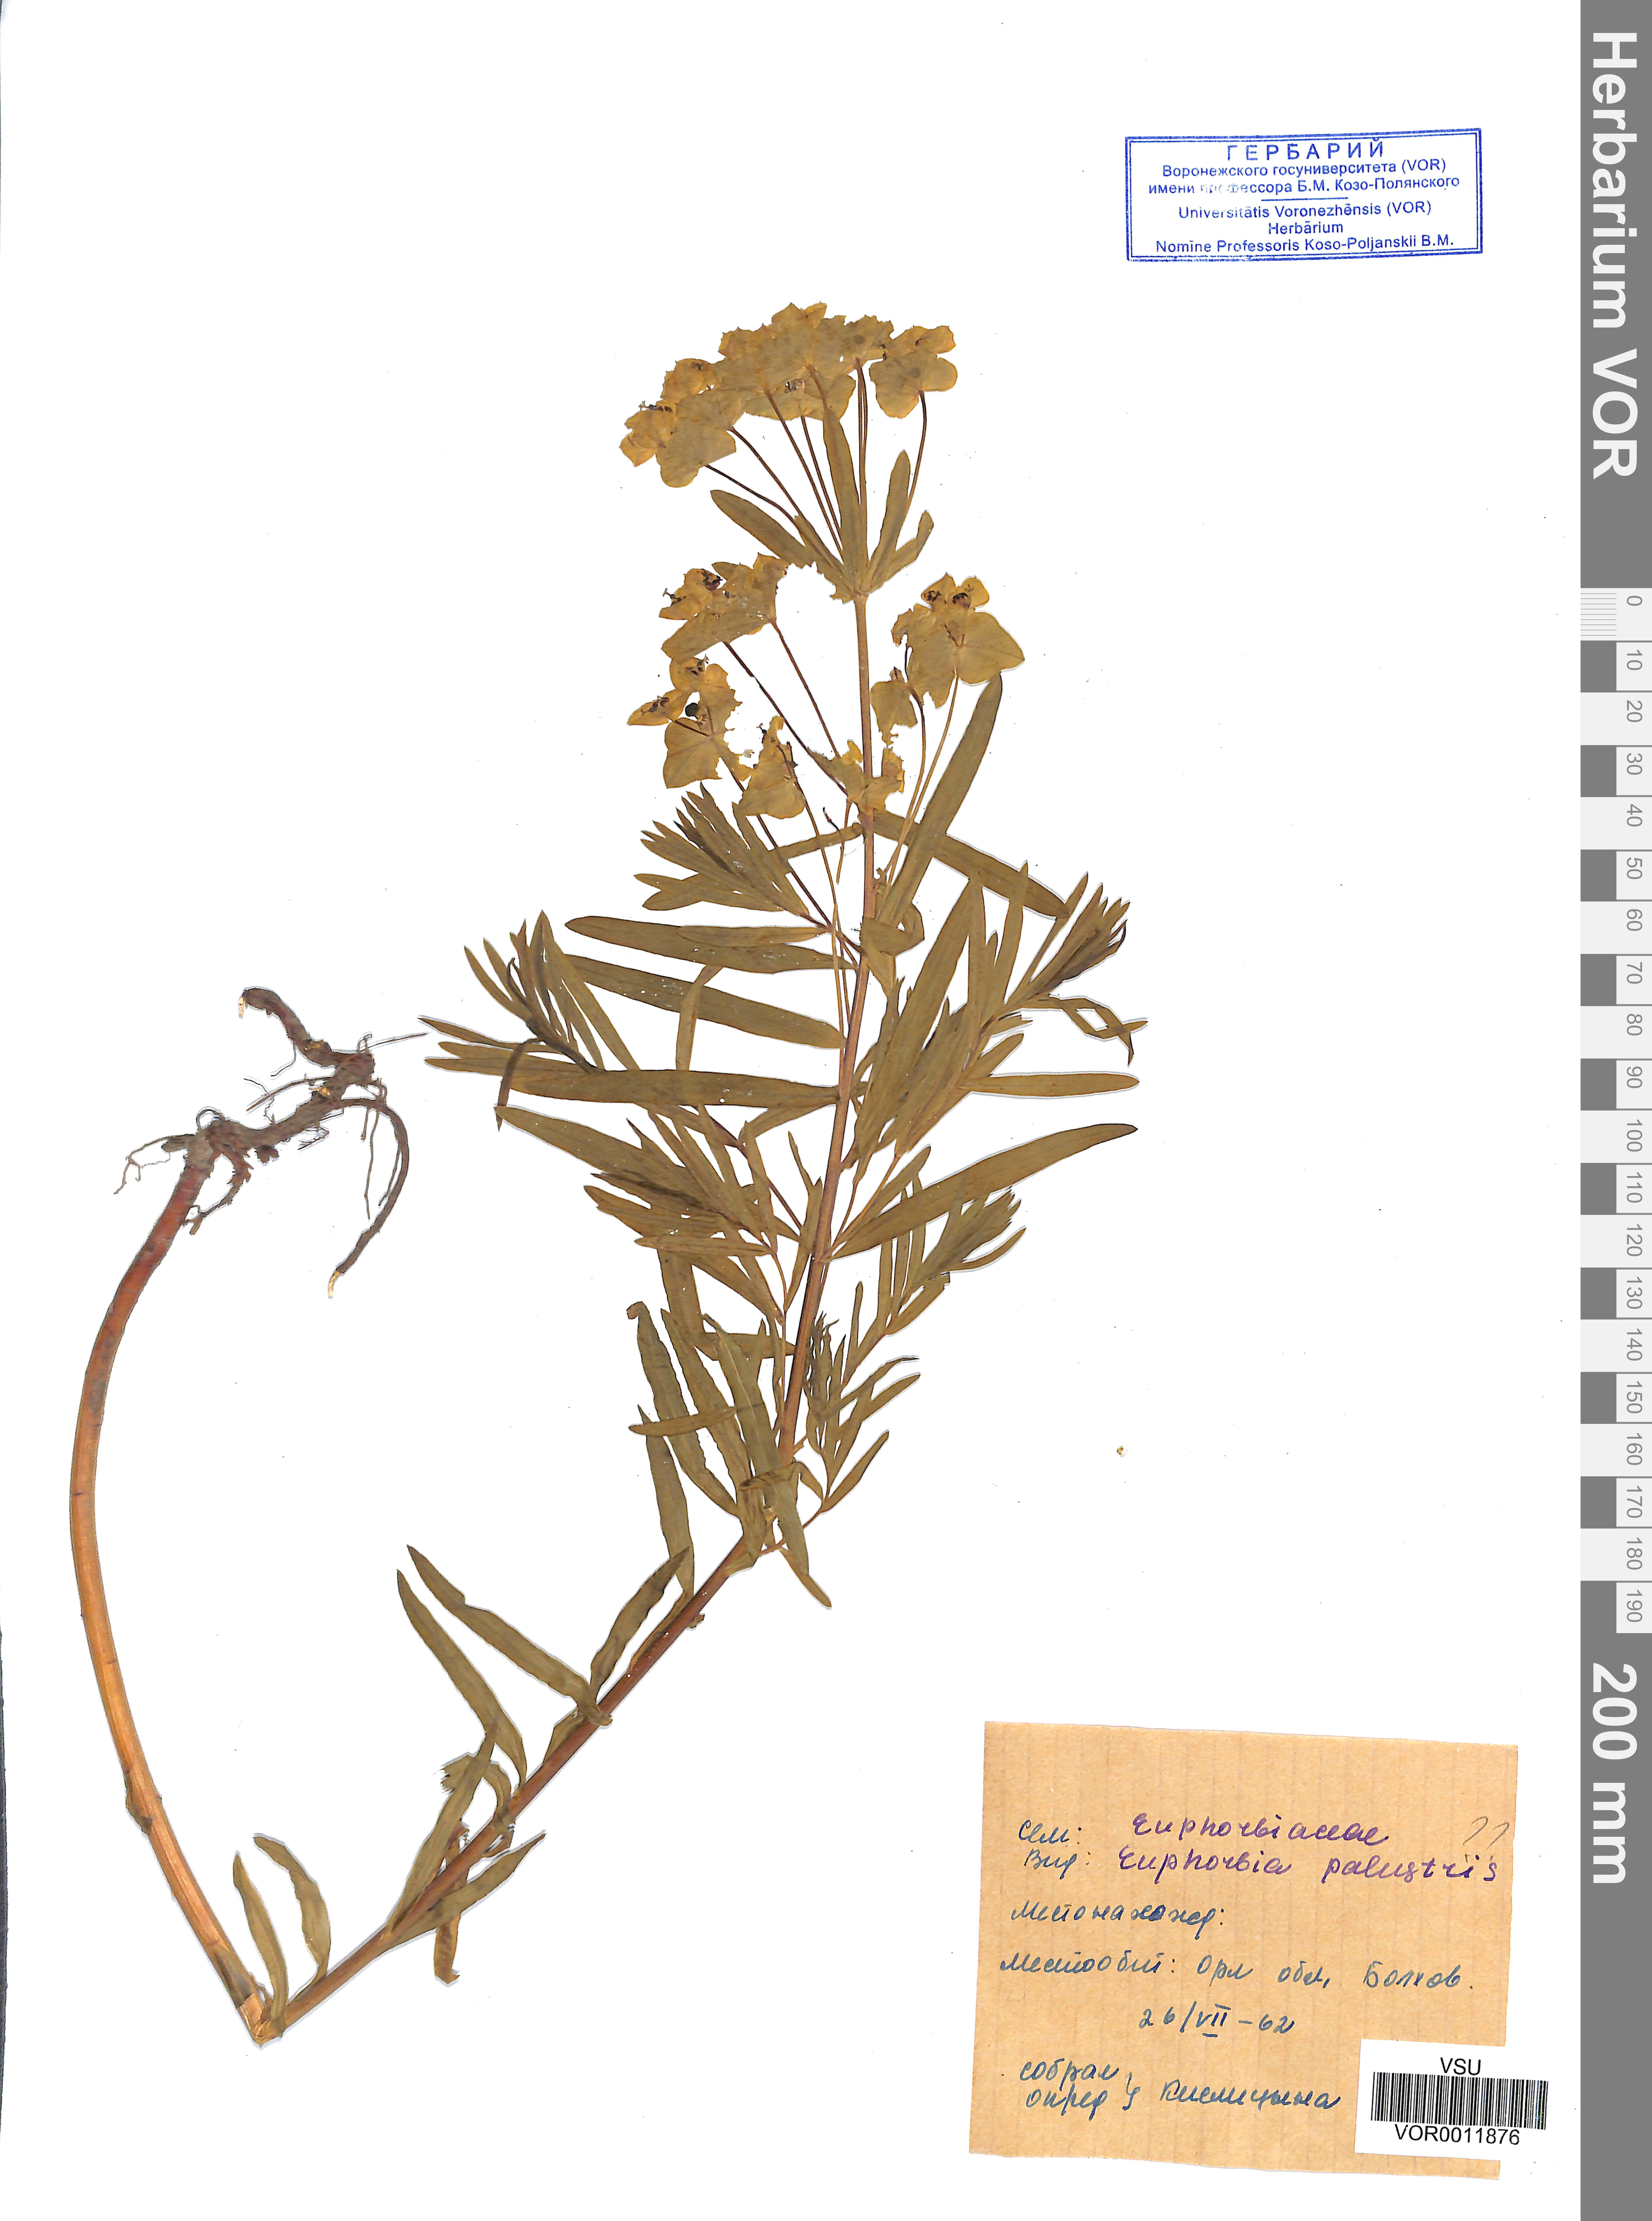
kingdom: Plantae
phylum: Tracheophyta
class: Magnoliopsida
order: Malpighiales
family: Euphorbiaceae
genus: Euphorbia
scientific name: Euphorbia virgata
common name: Leafy spurge
